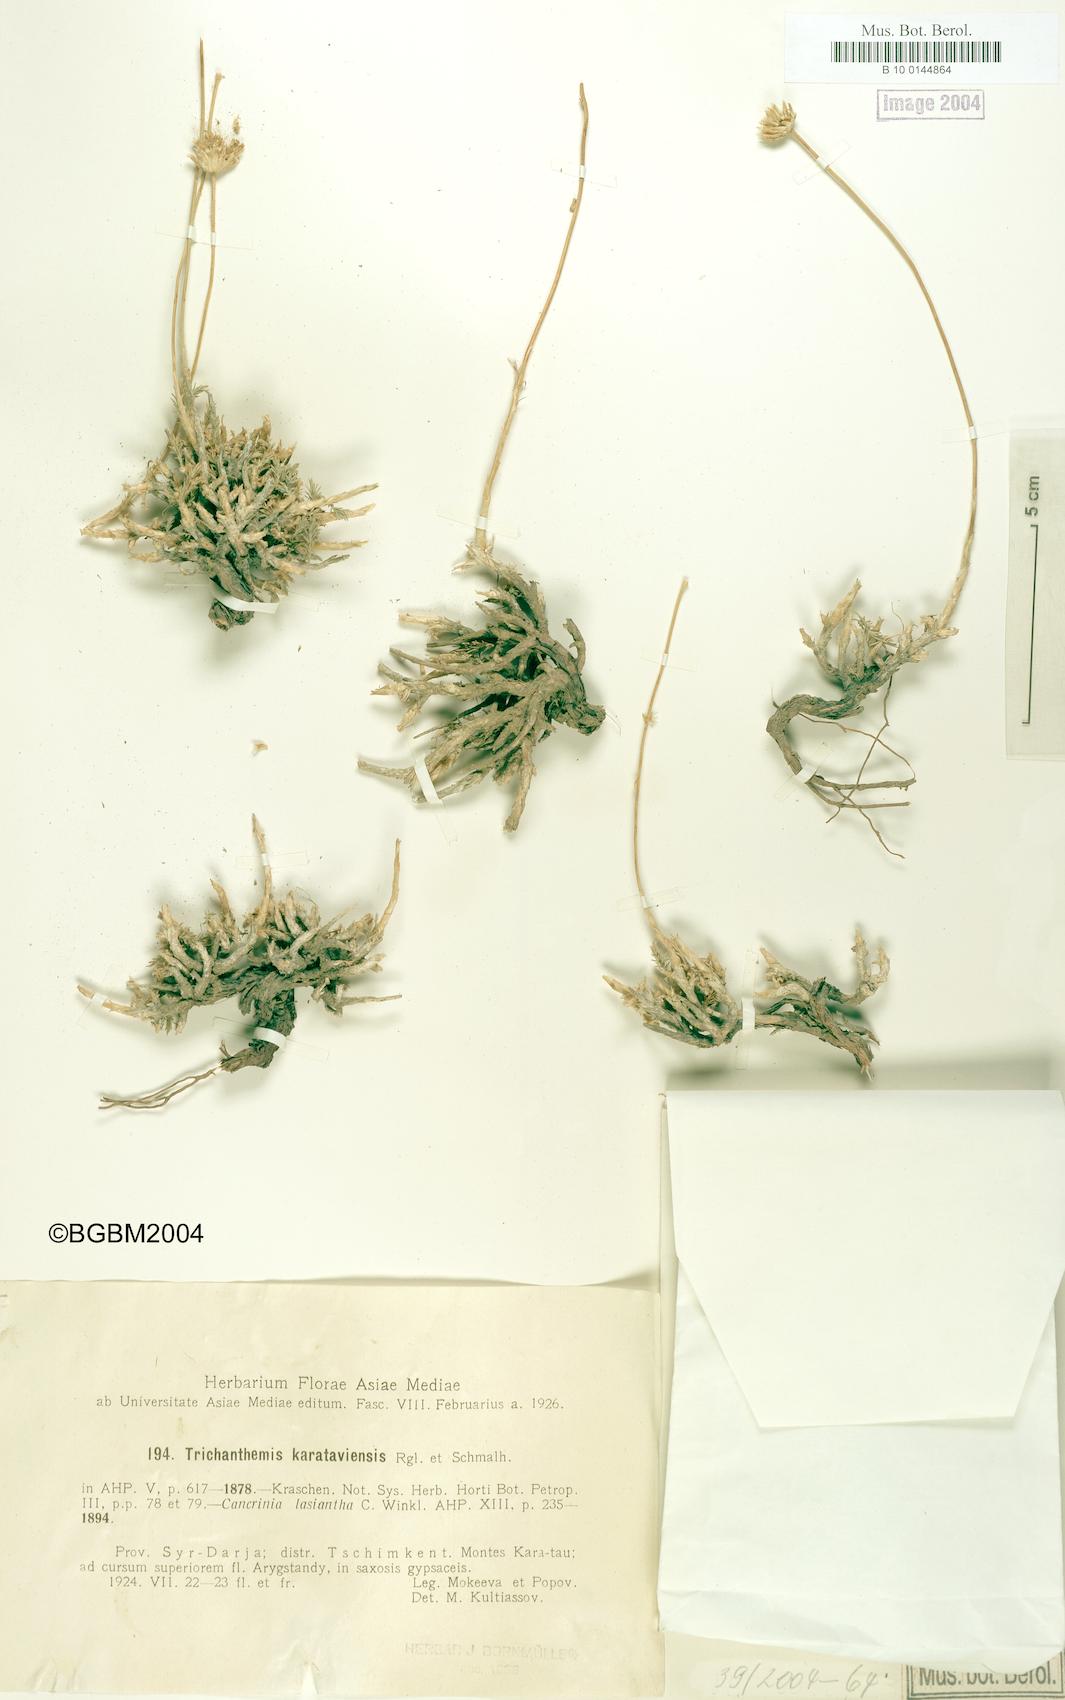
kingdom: Plantae
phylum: Tracheophyta
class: Magnoliopsida
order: Asterales
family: Asteraceae
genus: Trichanthemis
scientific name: Trichanthemis karataviensis
